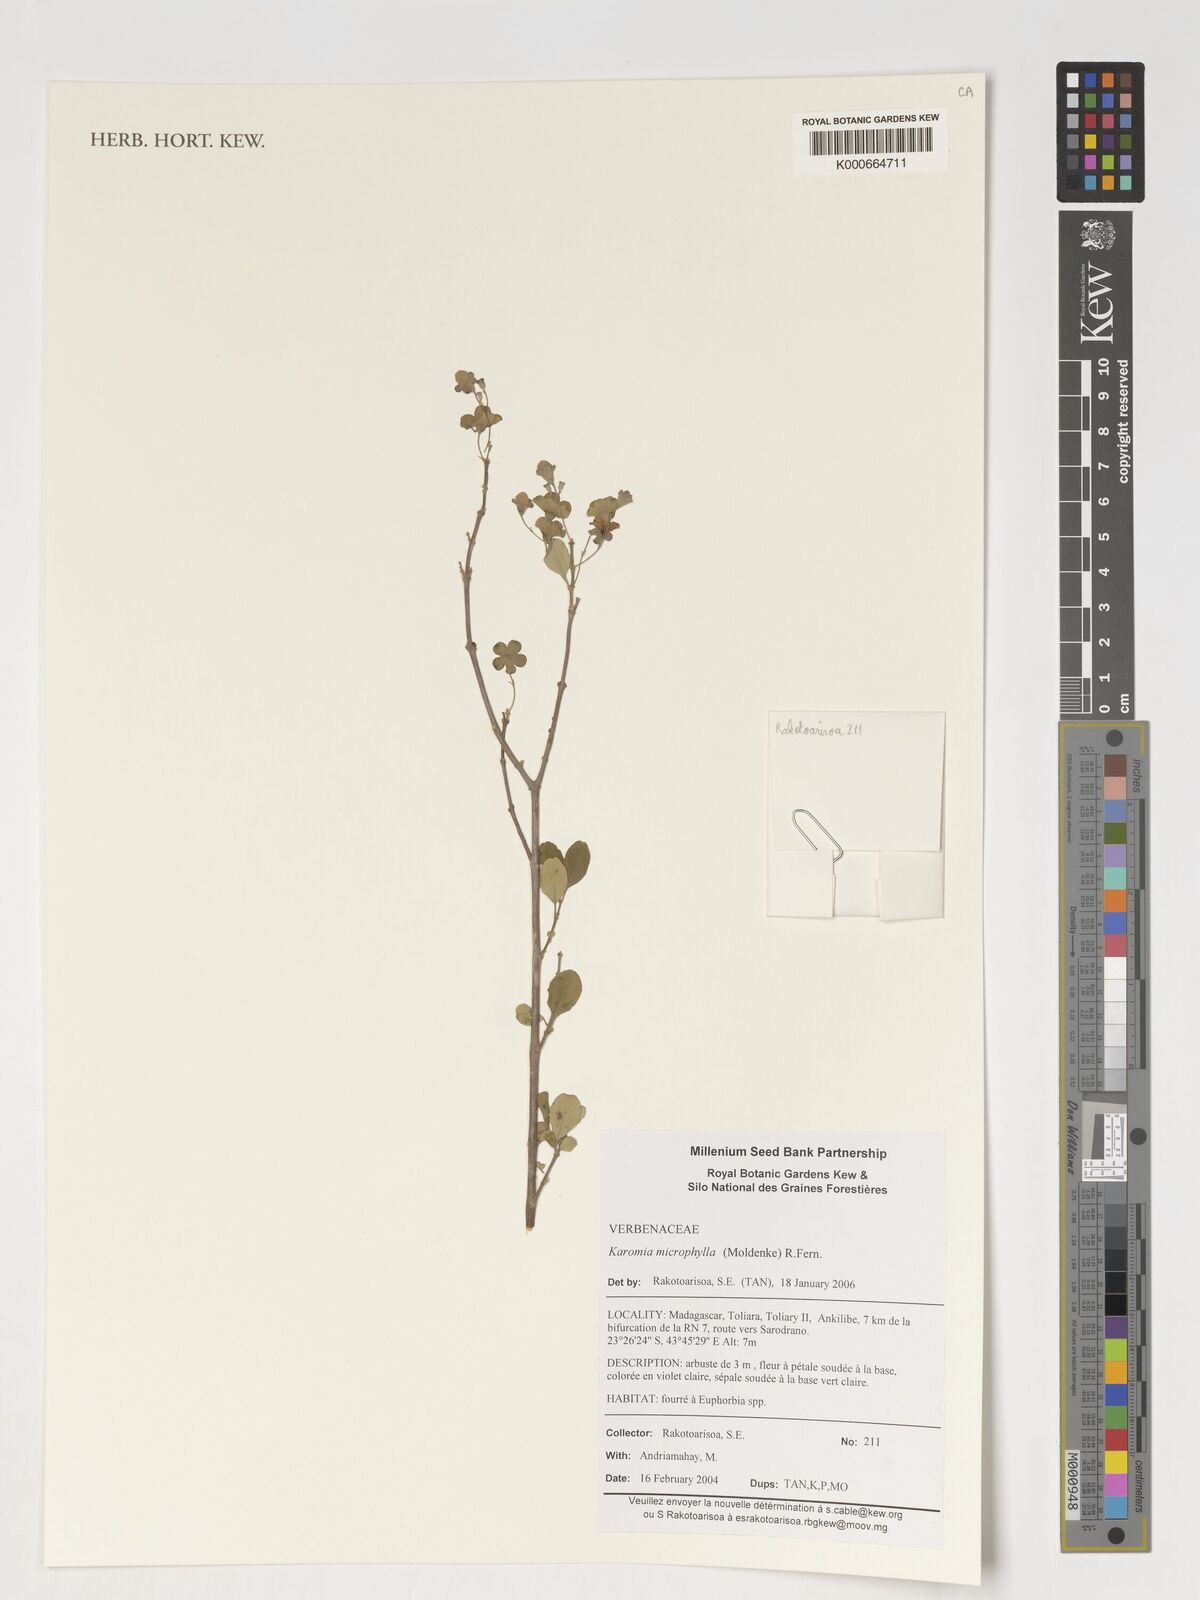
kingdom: Plantae
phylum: Tracheophyta
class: Magnoliopsida
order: Lamiales
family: Lamiaceae
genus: Karomia
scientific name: Karomia microphylla
